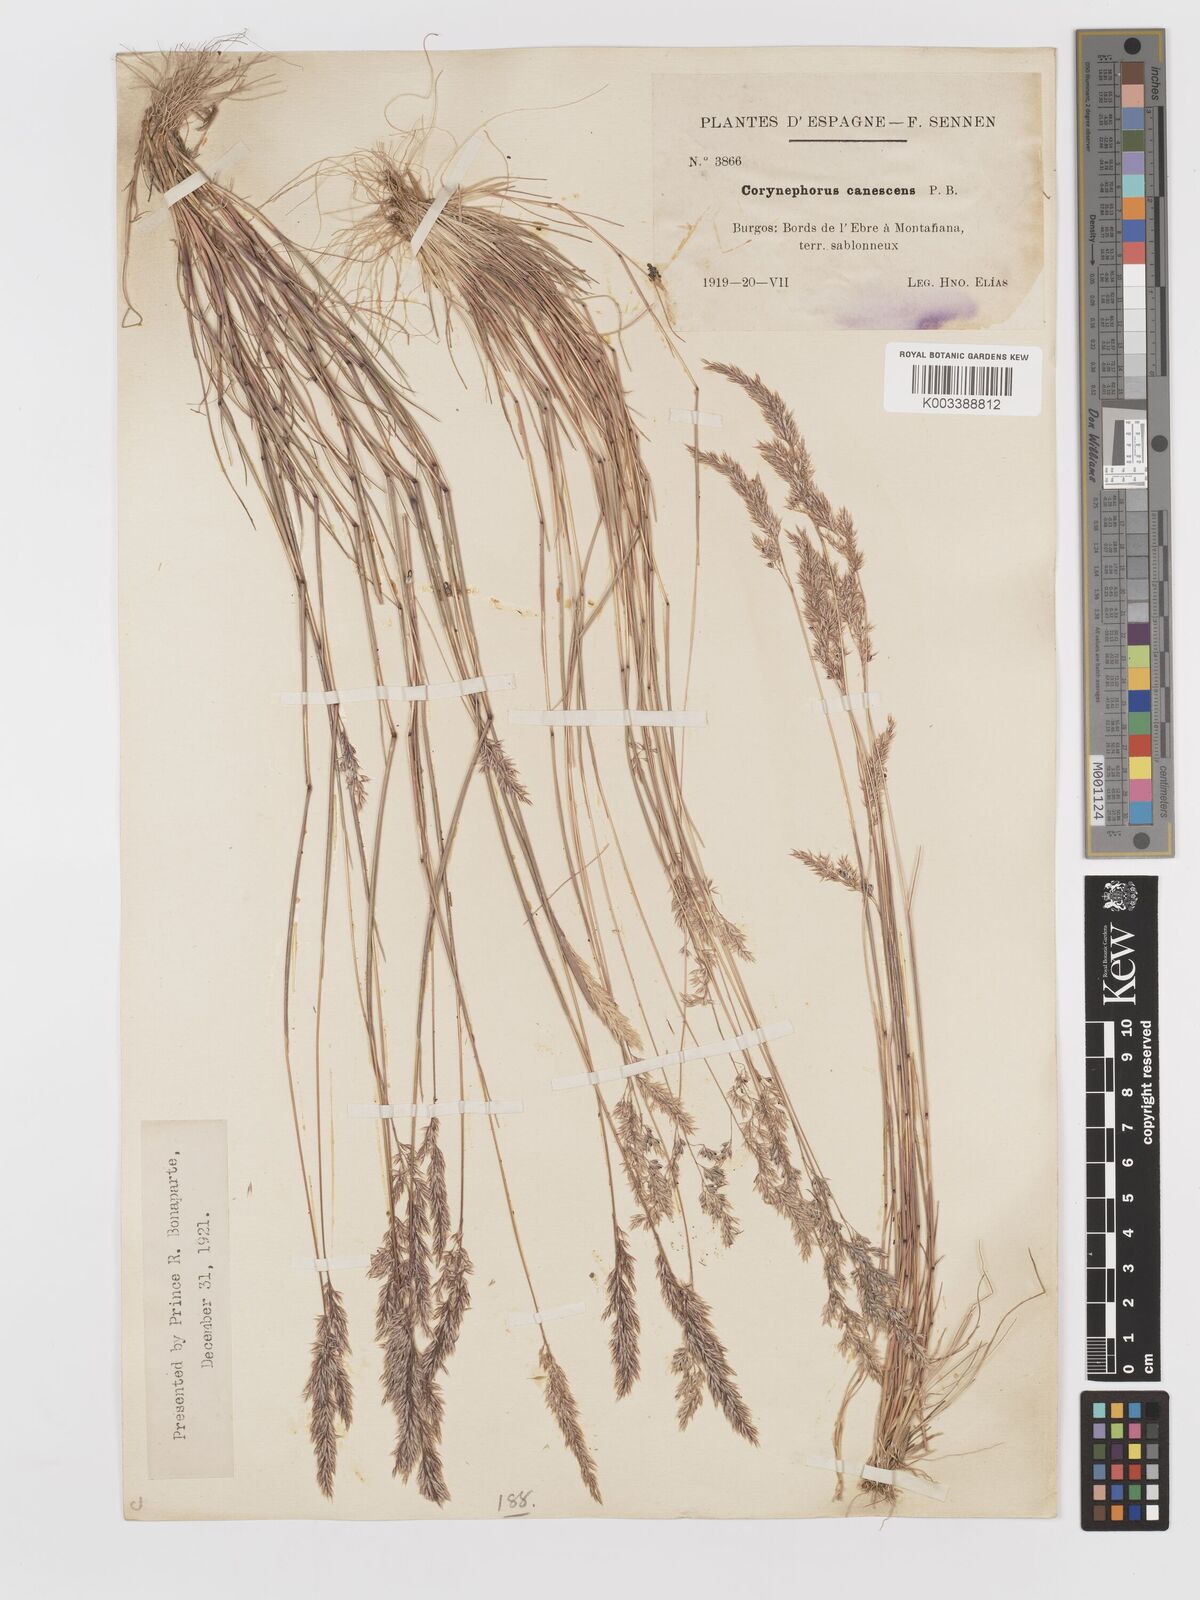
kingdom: Plantae
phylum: Tracheophyta
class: Liliopsida
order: Poales
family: Poaceae
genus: Corynephorus
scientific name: Corynephorus canescens
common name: Grey hair-grass
